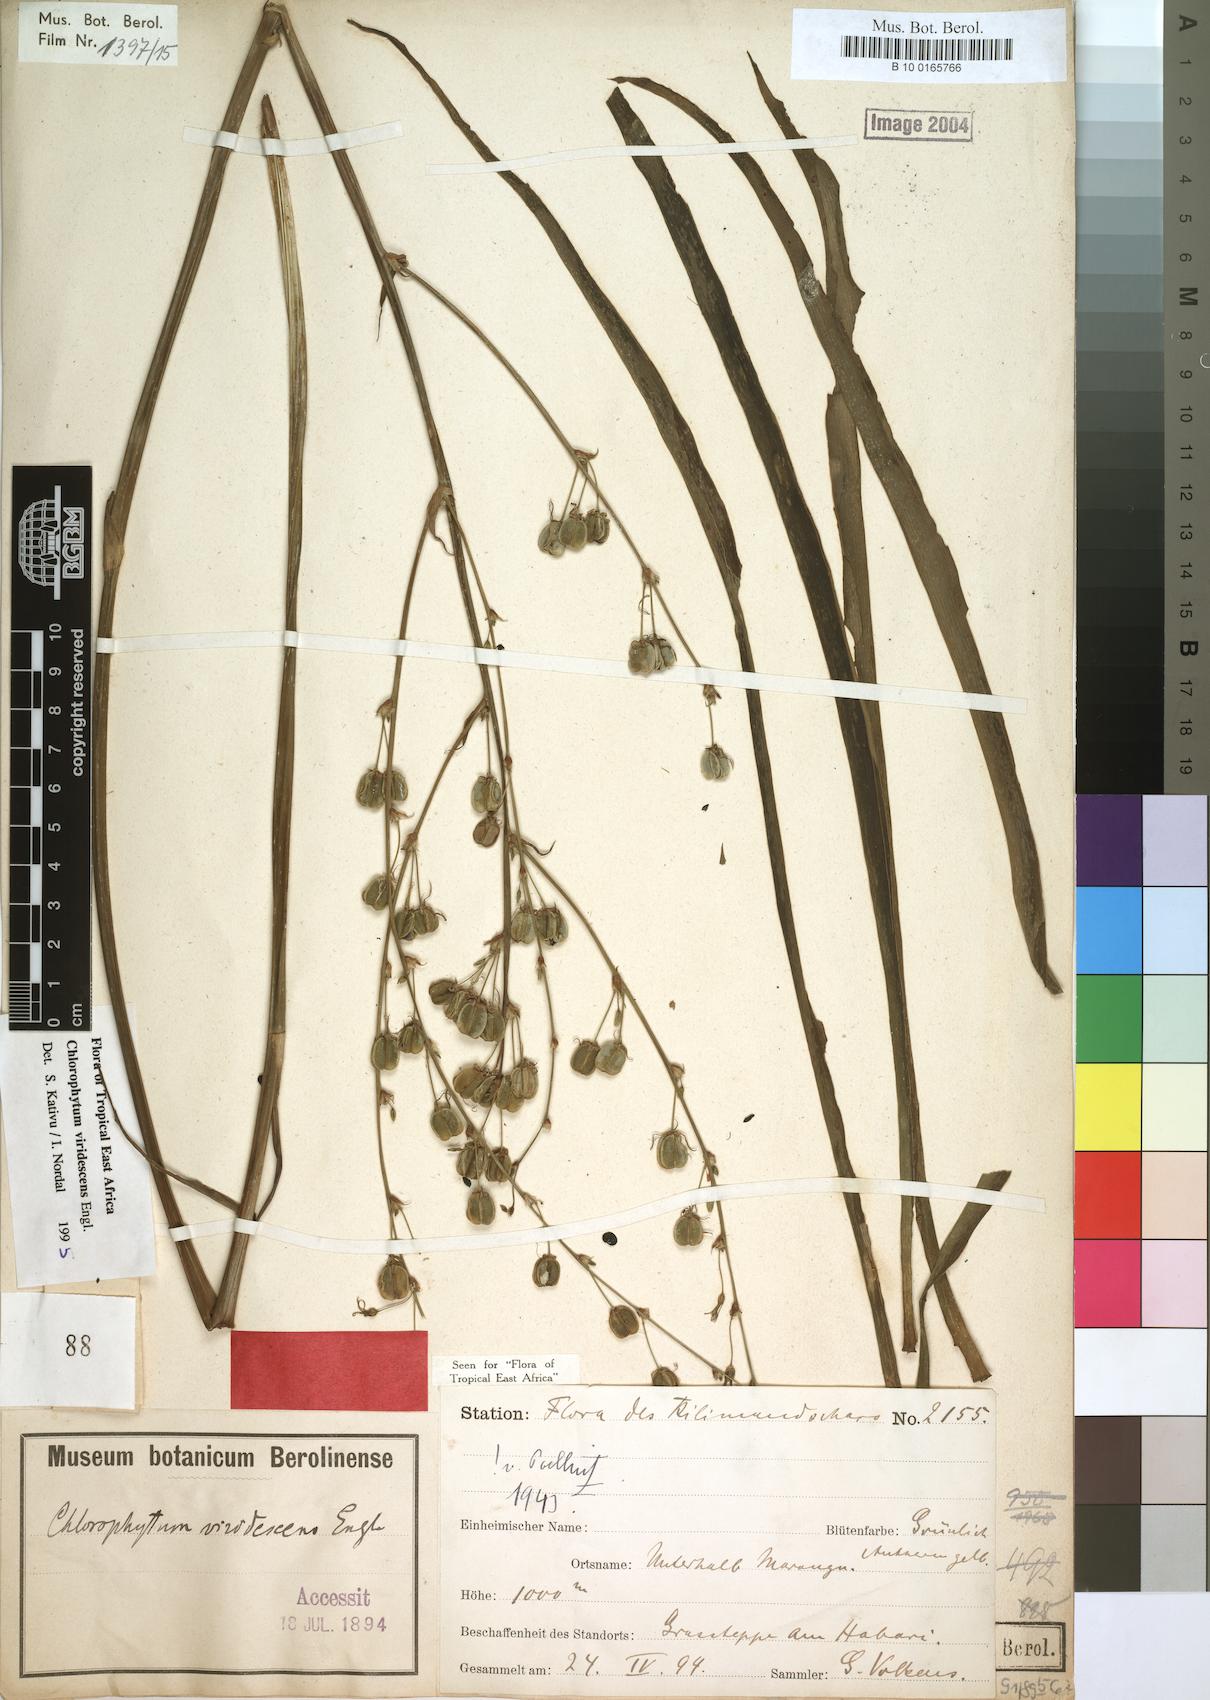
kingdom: Plantae
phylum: Tracheophyta
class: Liliopsida
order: Asparagales
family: Asparagaceae
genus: Chlorophytum
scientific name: Chlorophytum viridescens
